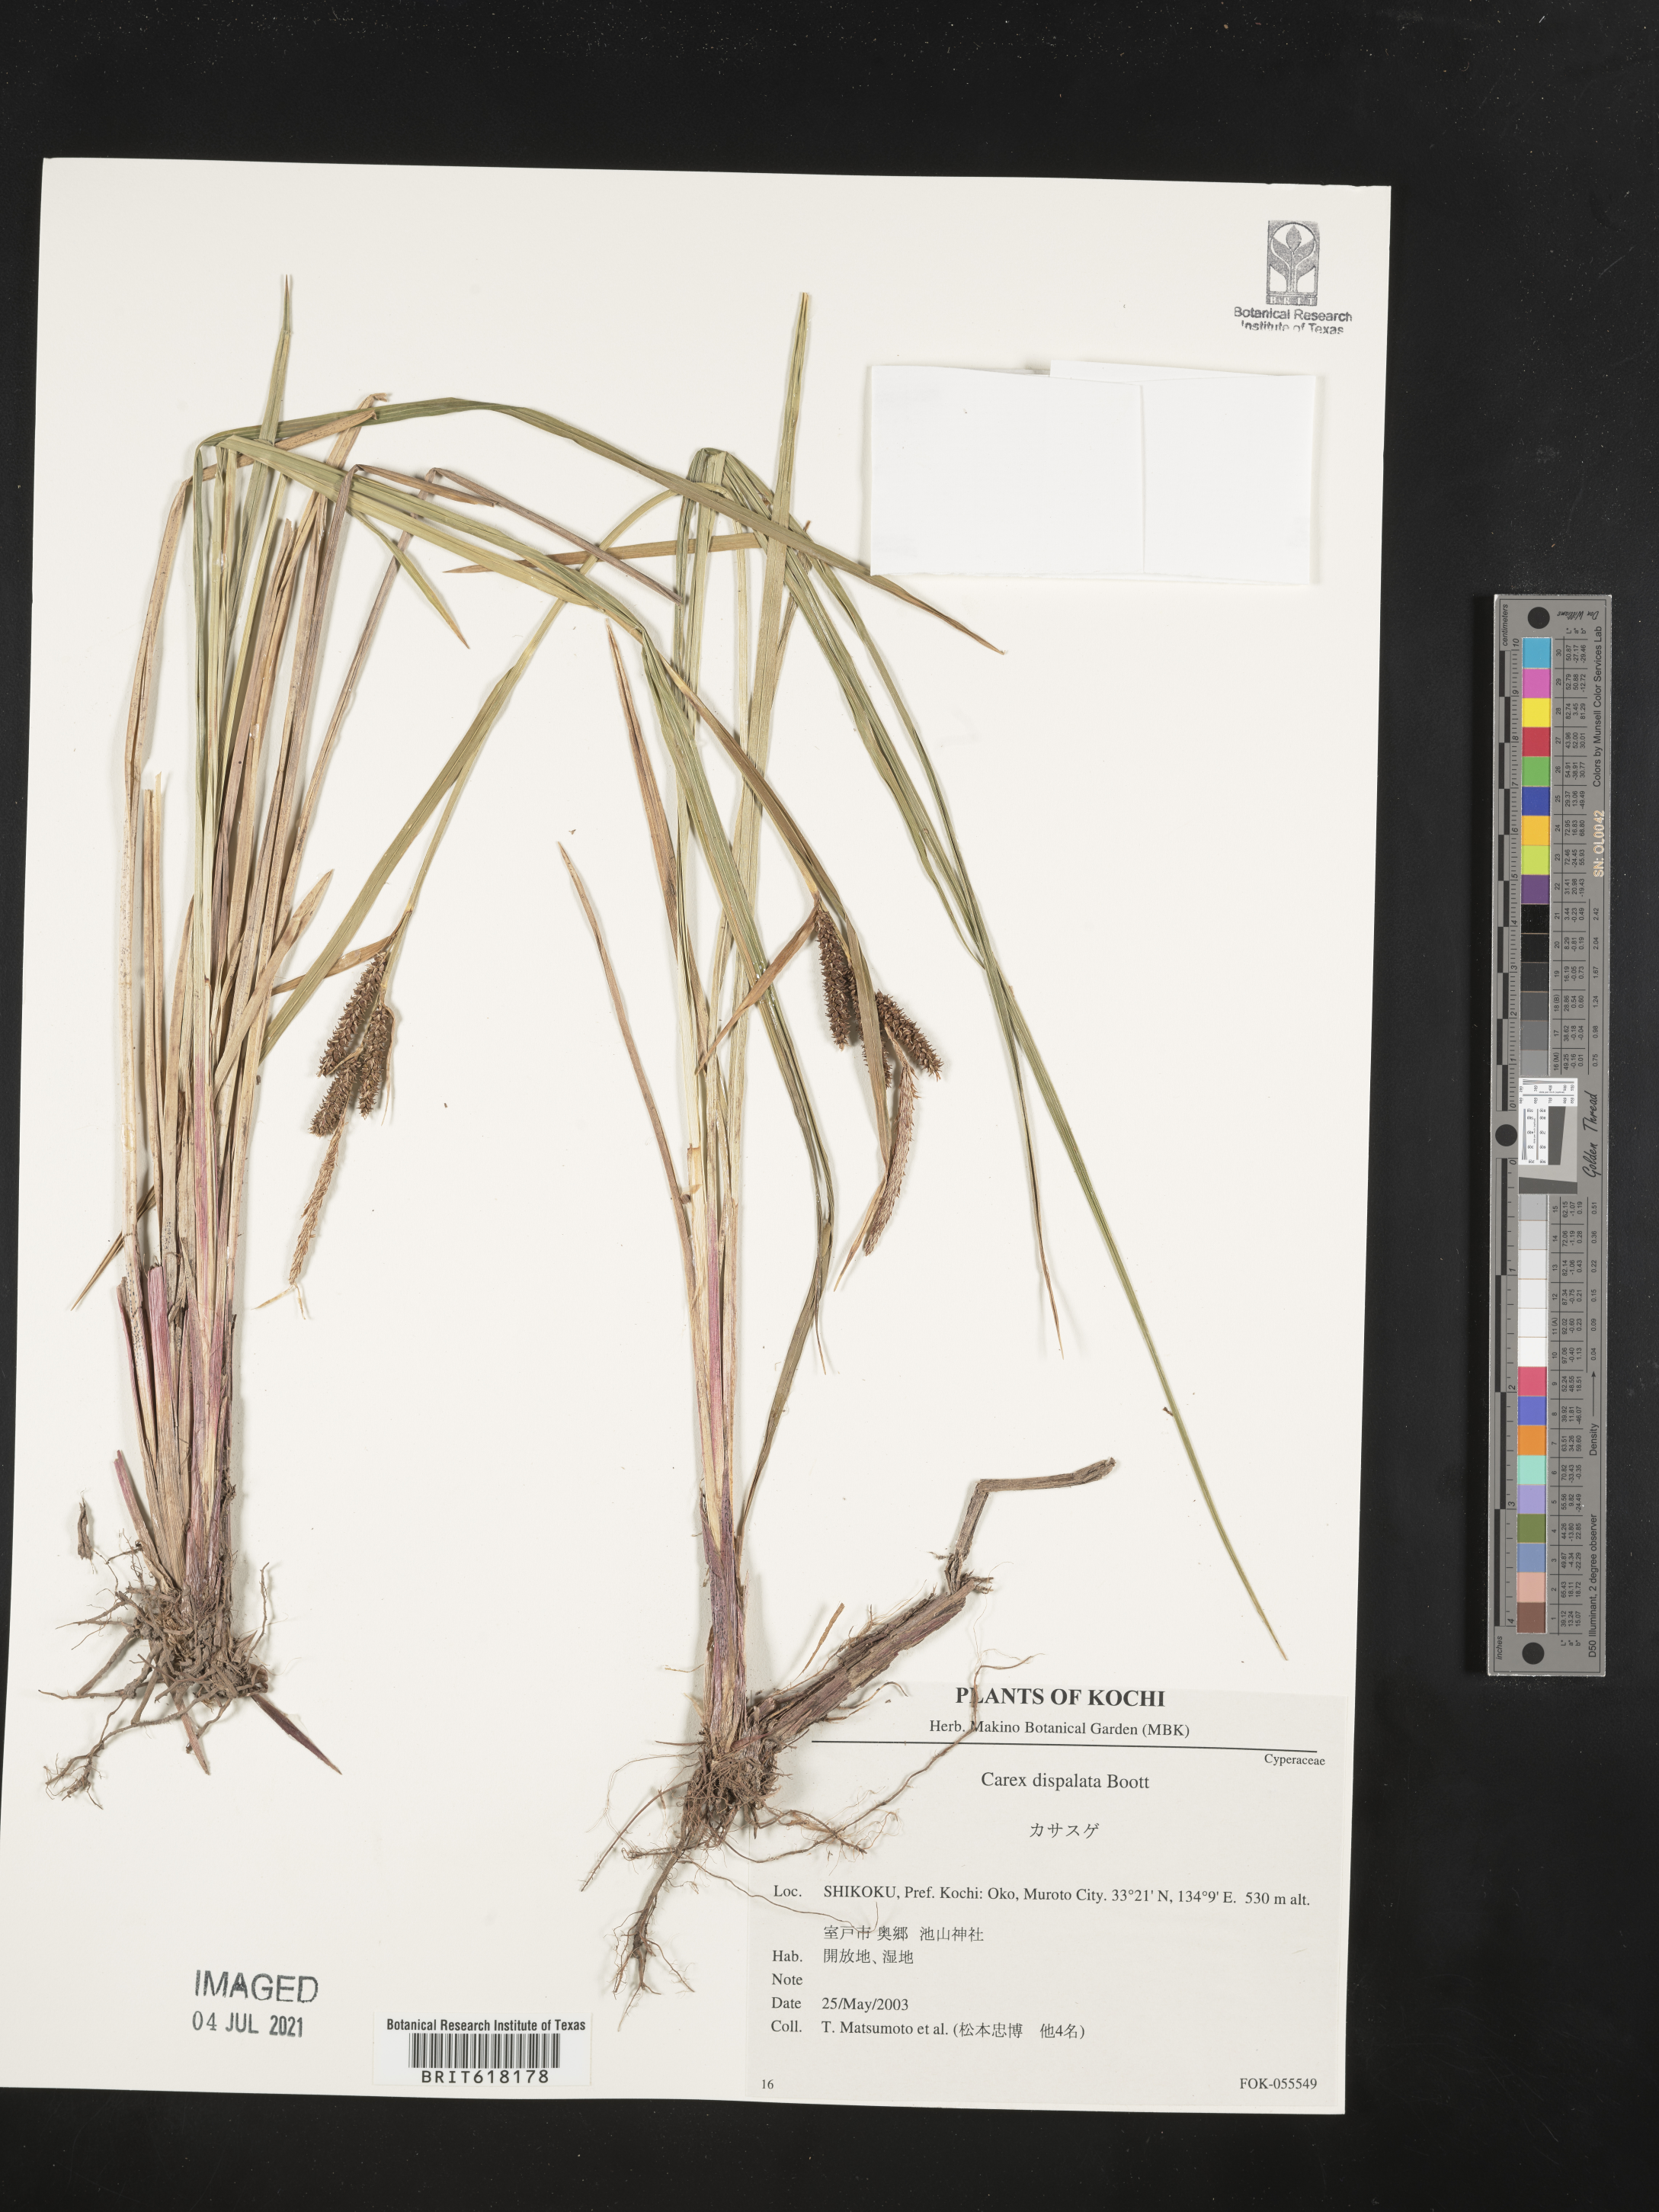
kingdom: Plantae
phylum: Tracheophyta
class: Liliopsida
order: Poales
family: Cyperaceae
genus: Carex
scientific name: Carex dispalata
